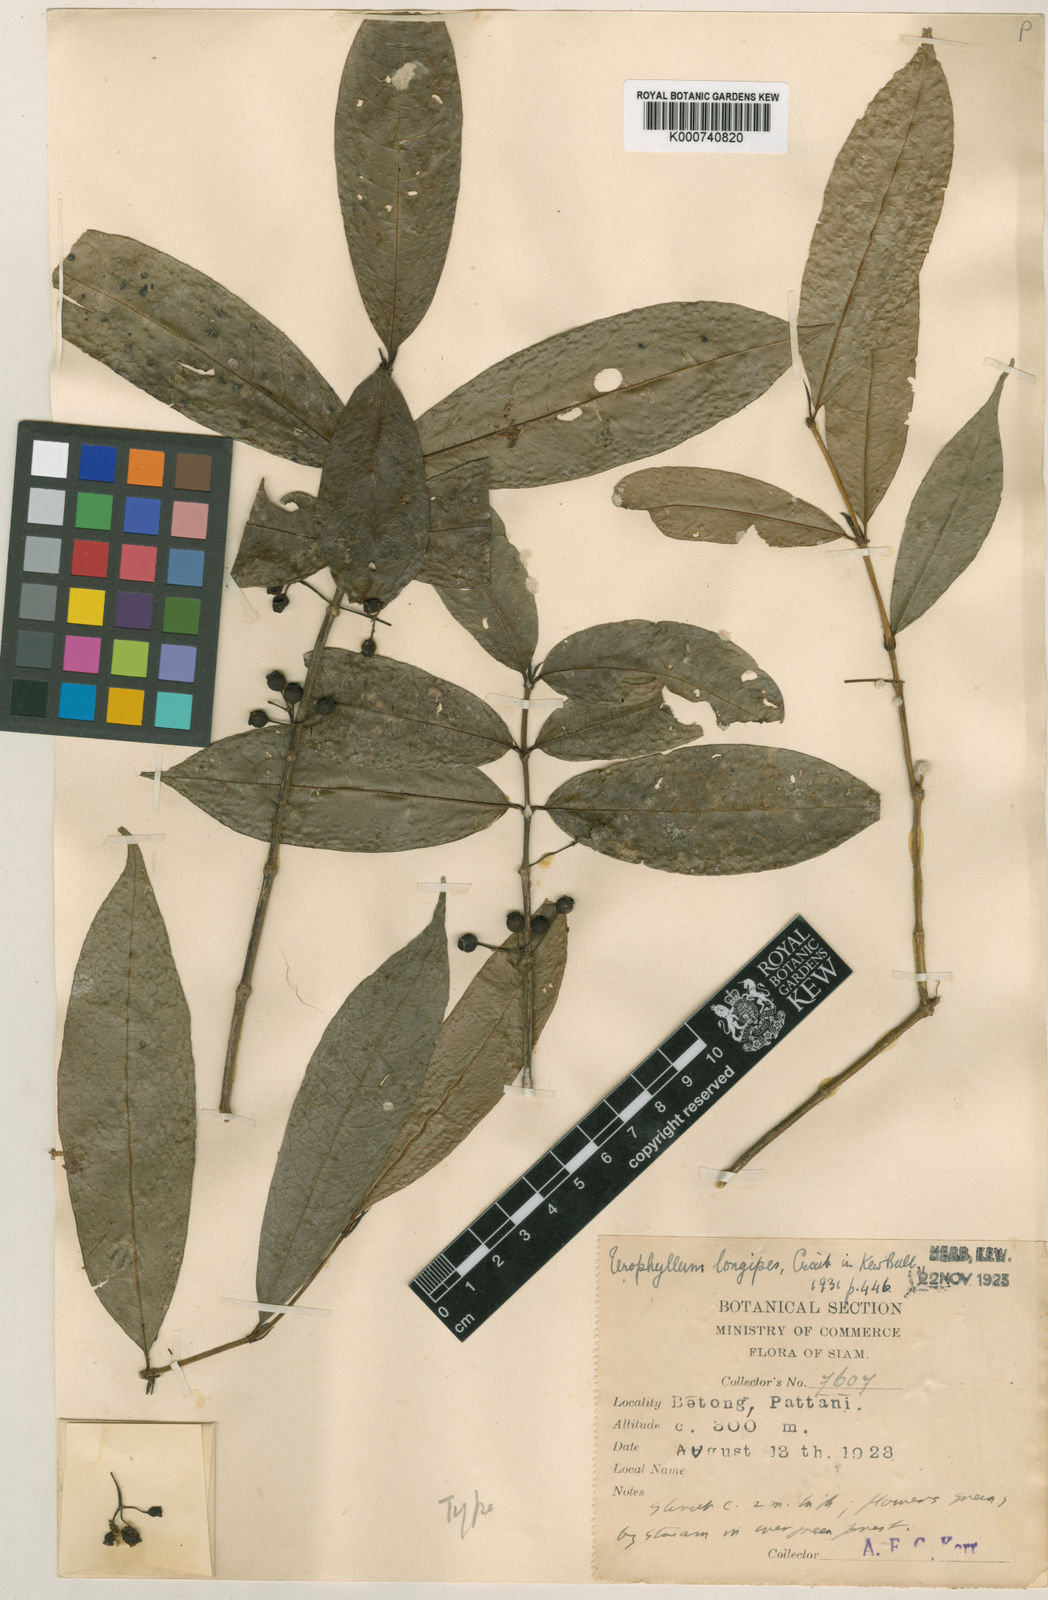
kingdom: Plantae
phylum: Tracheophyta
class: Magnoliopsida
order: Gentianales
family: Rubiaceae
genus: Urophyllum
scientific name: Urophyllum longipes
